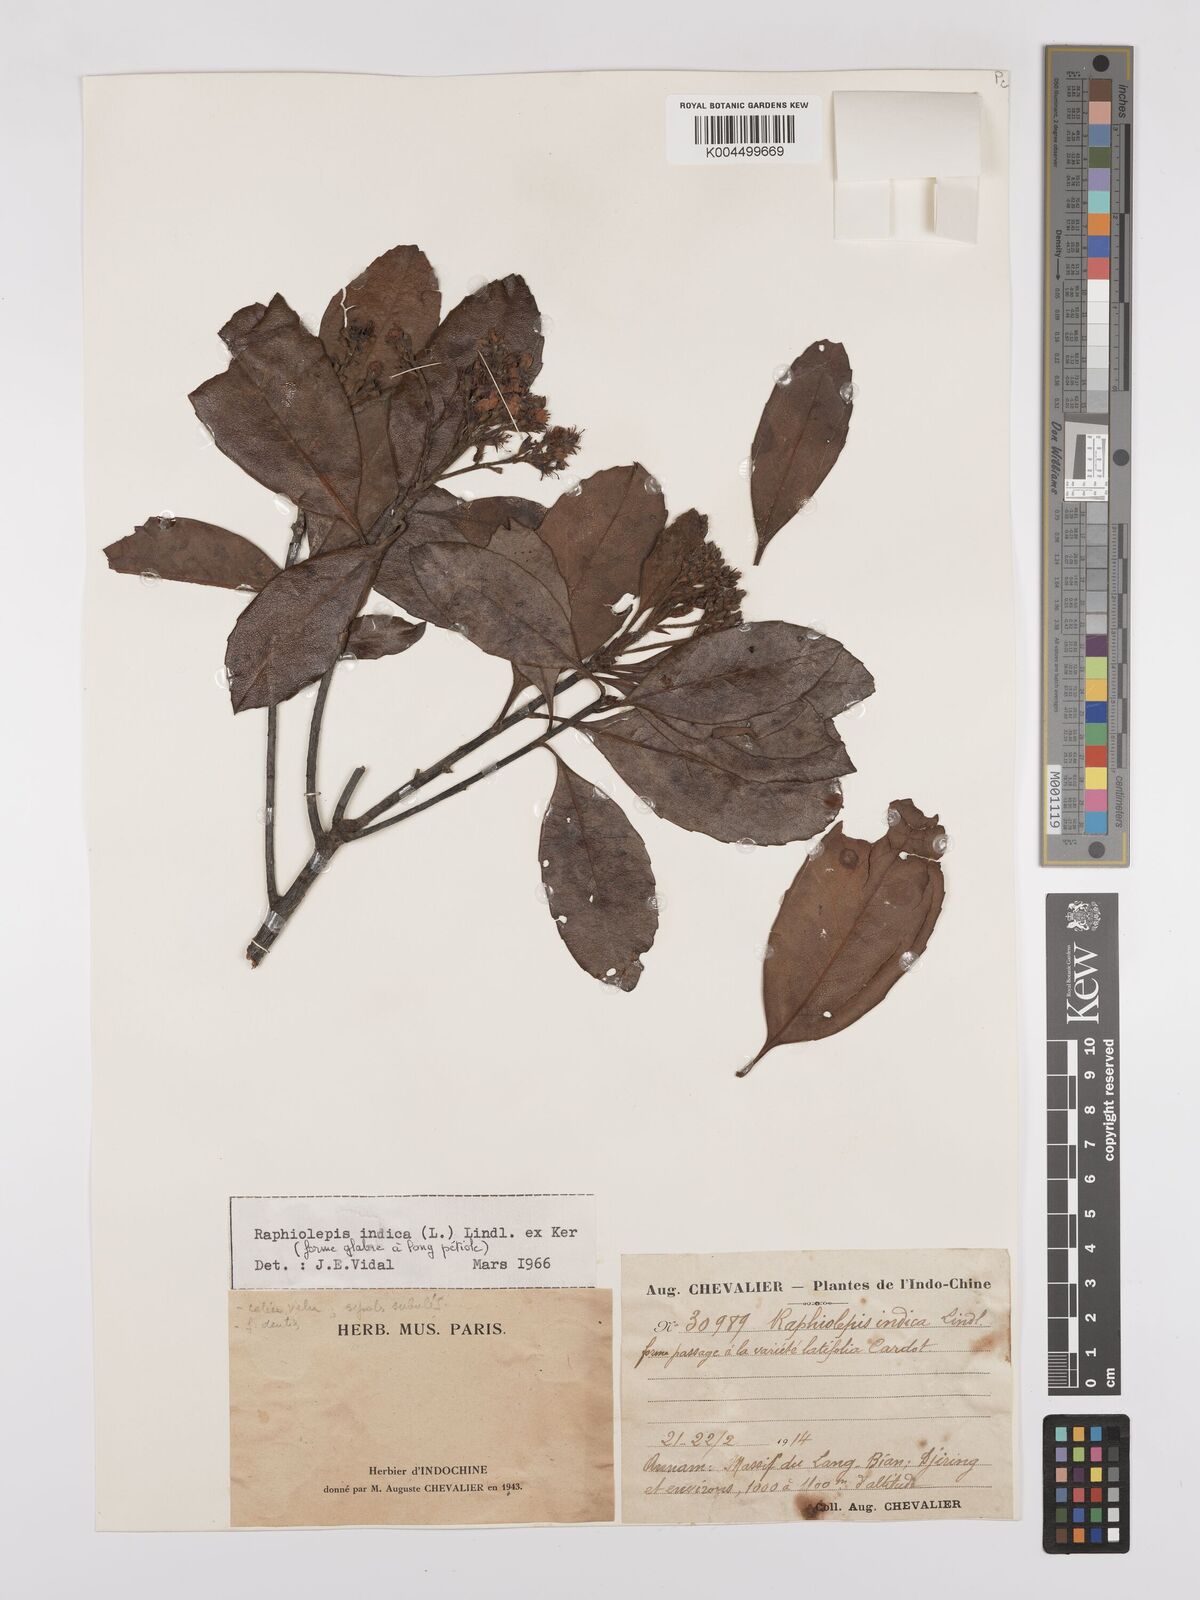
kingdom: Plantae
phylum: Tracheophyta
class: Magnoliopsida
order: Rosales
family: Rosaceae
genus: Rhaphiolepis
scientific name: Rhaphiolepis indica
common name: India-hawthorn
